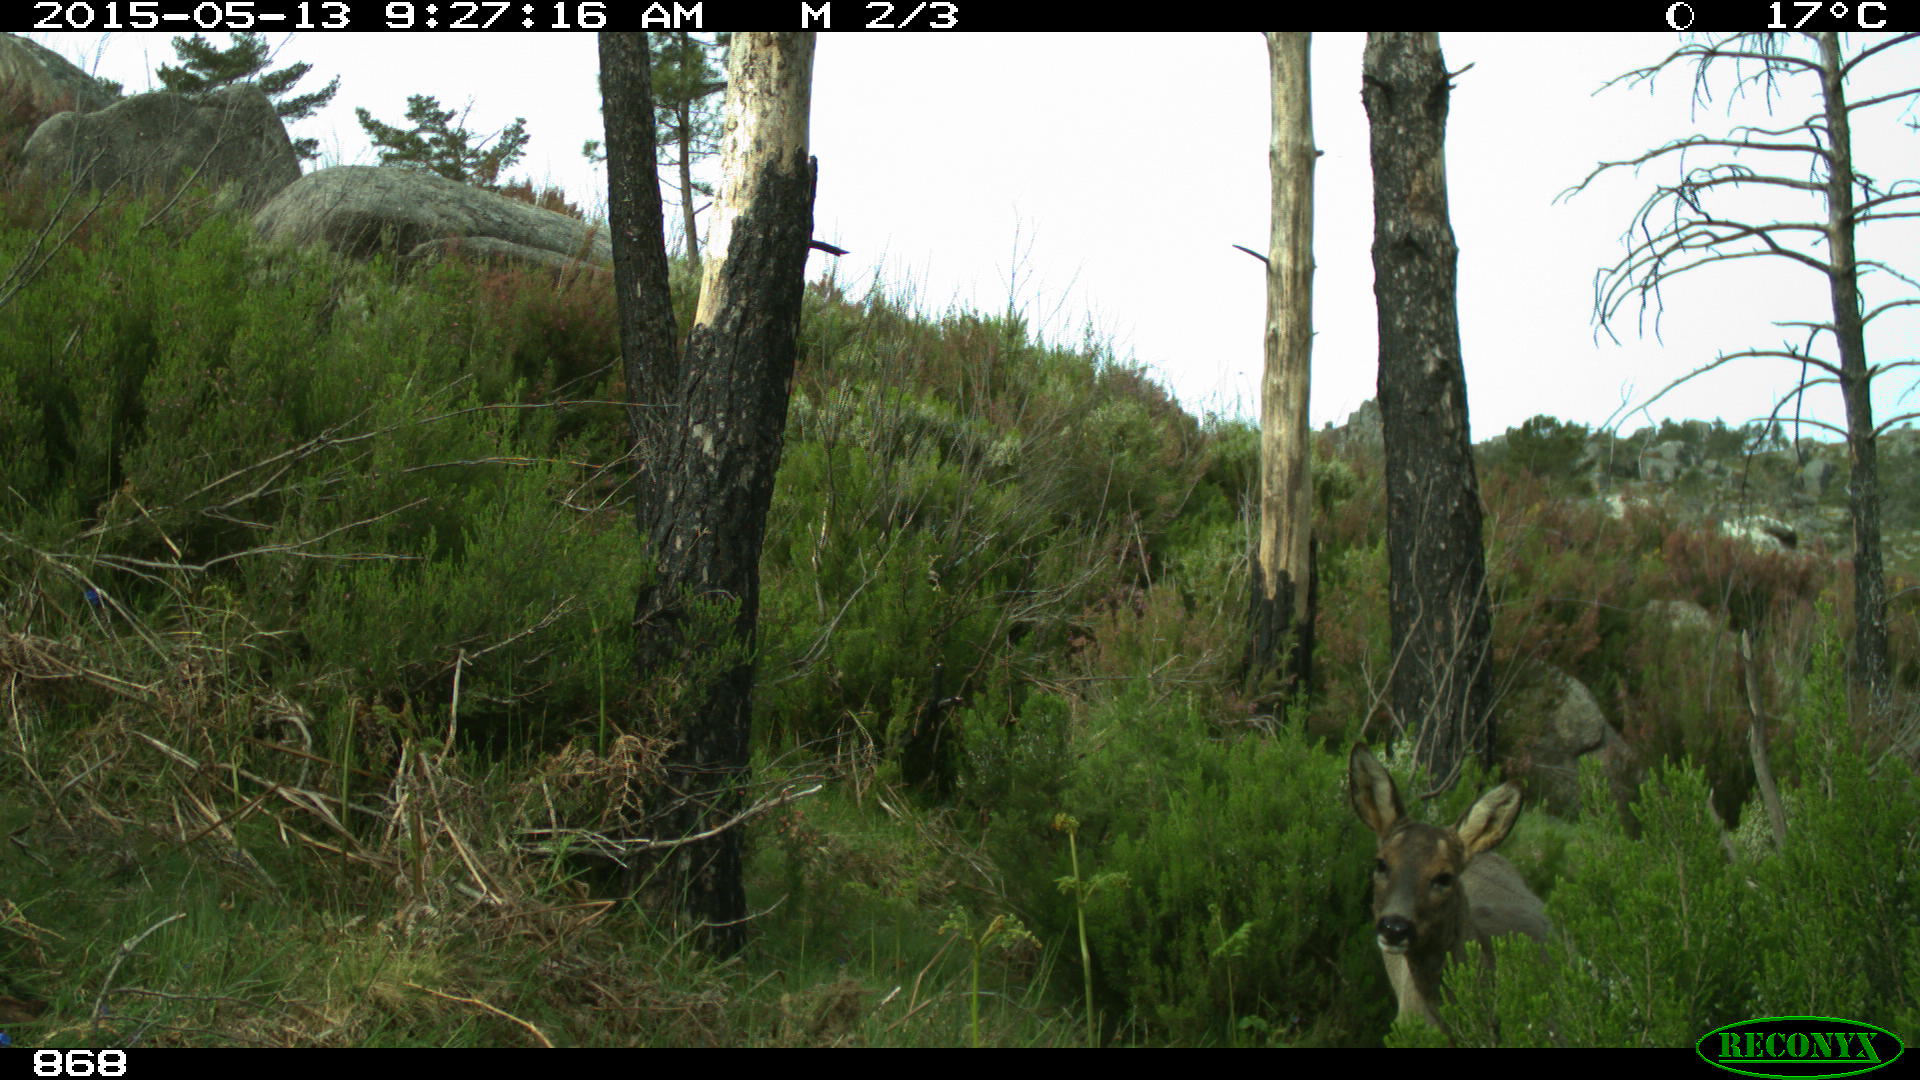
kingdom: Animalia
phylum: Chordata
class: Mammalia
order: Artiodactyla
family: Cervidae
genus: Capreolus
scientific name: Capreolus capreolus
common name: Western roe deer
